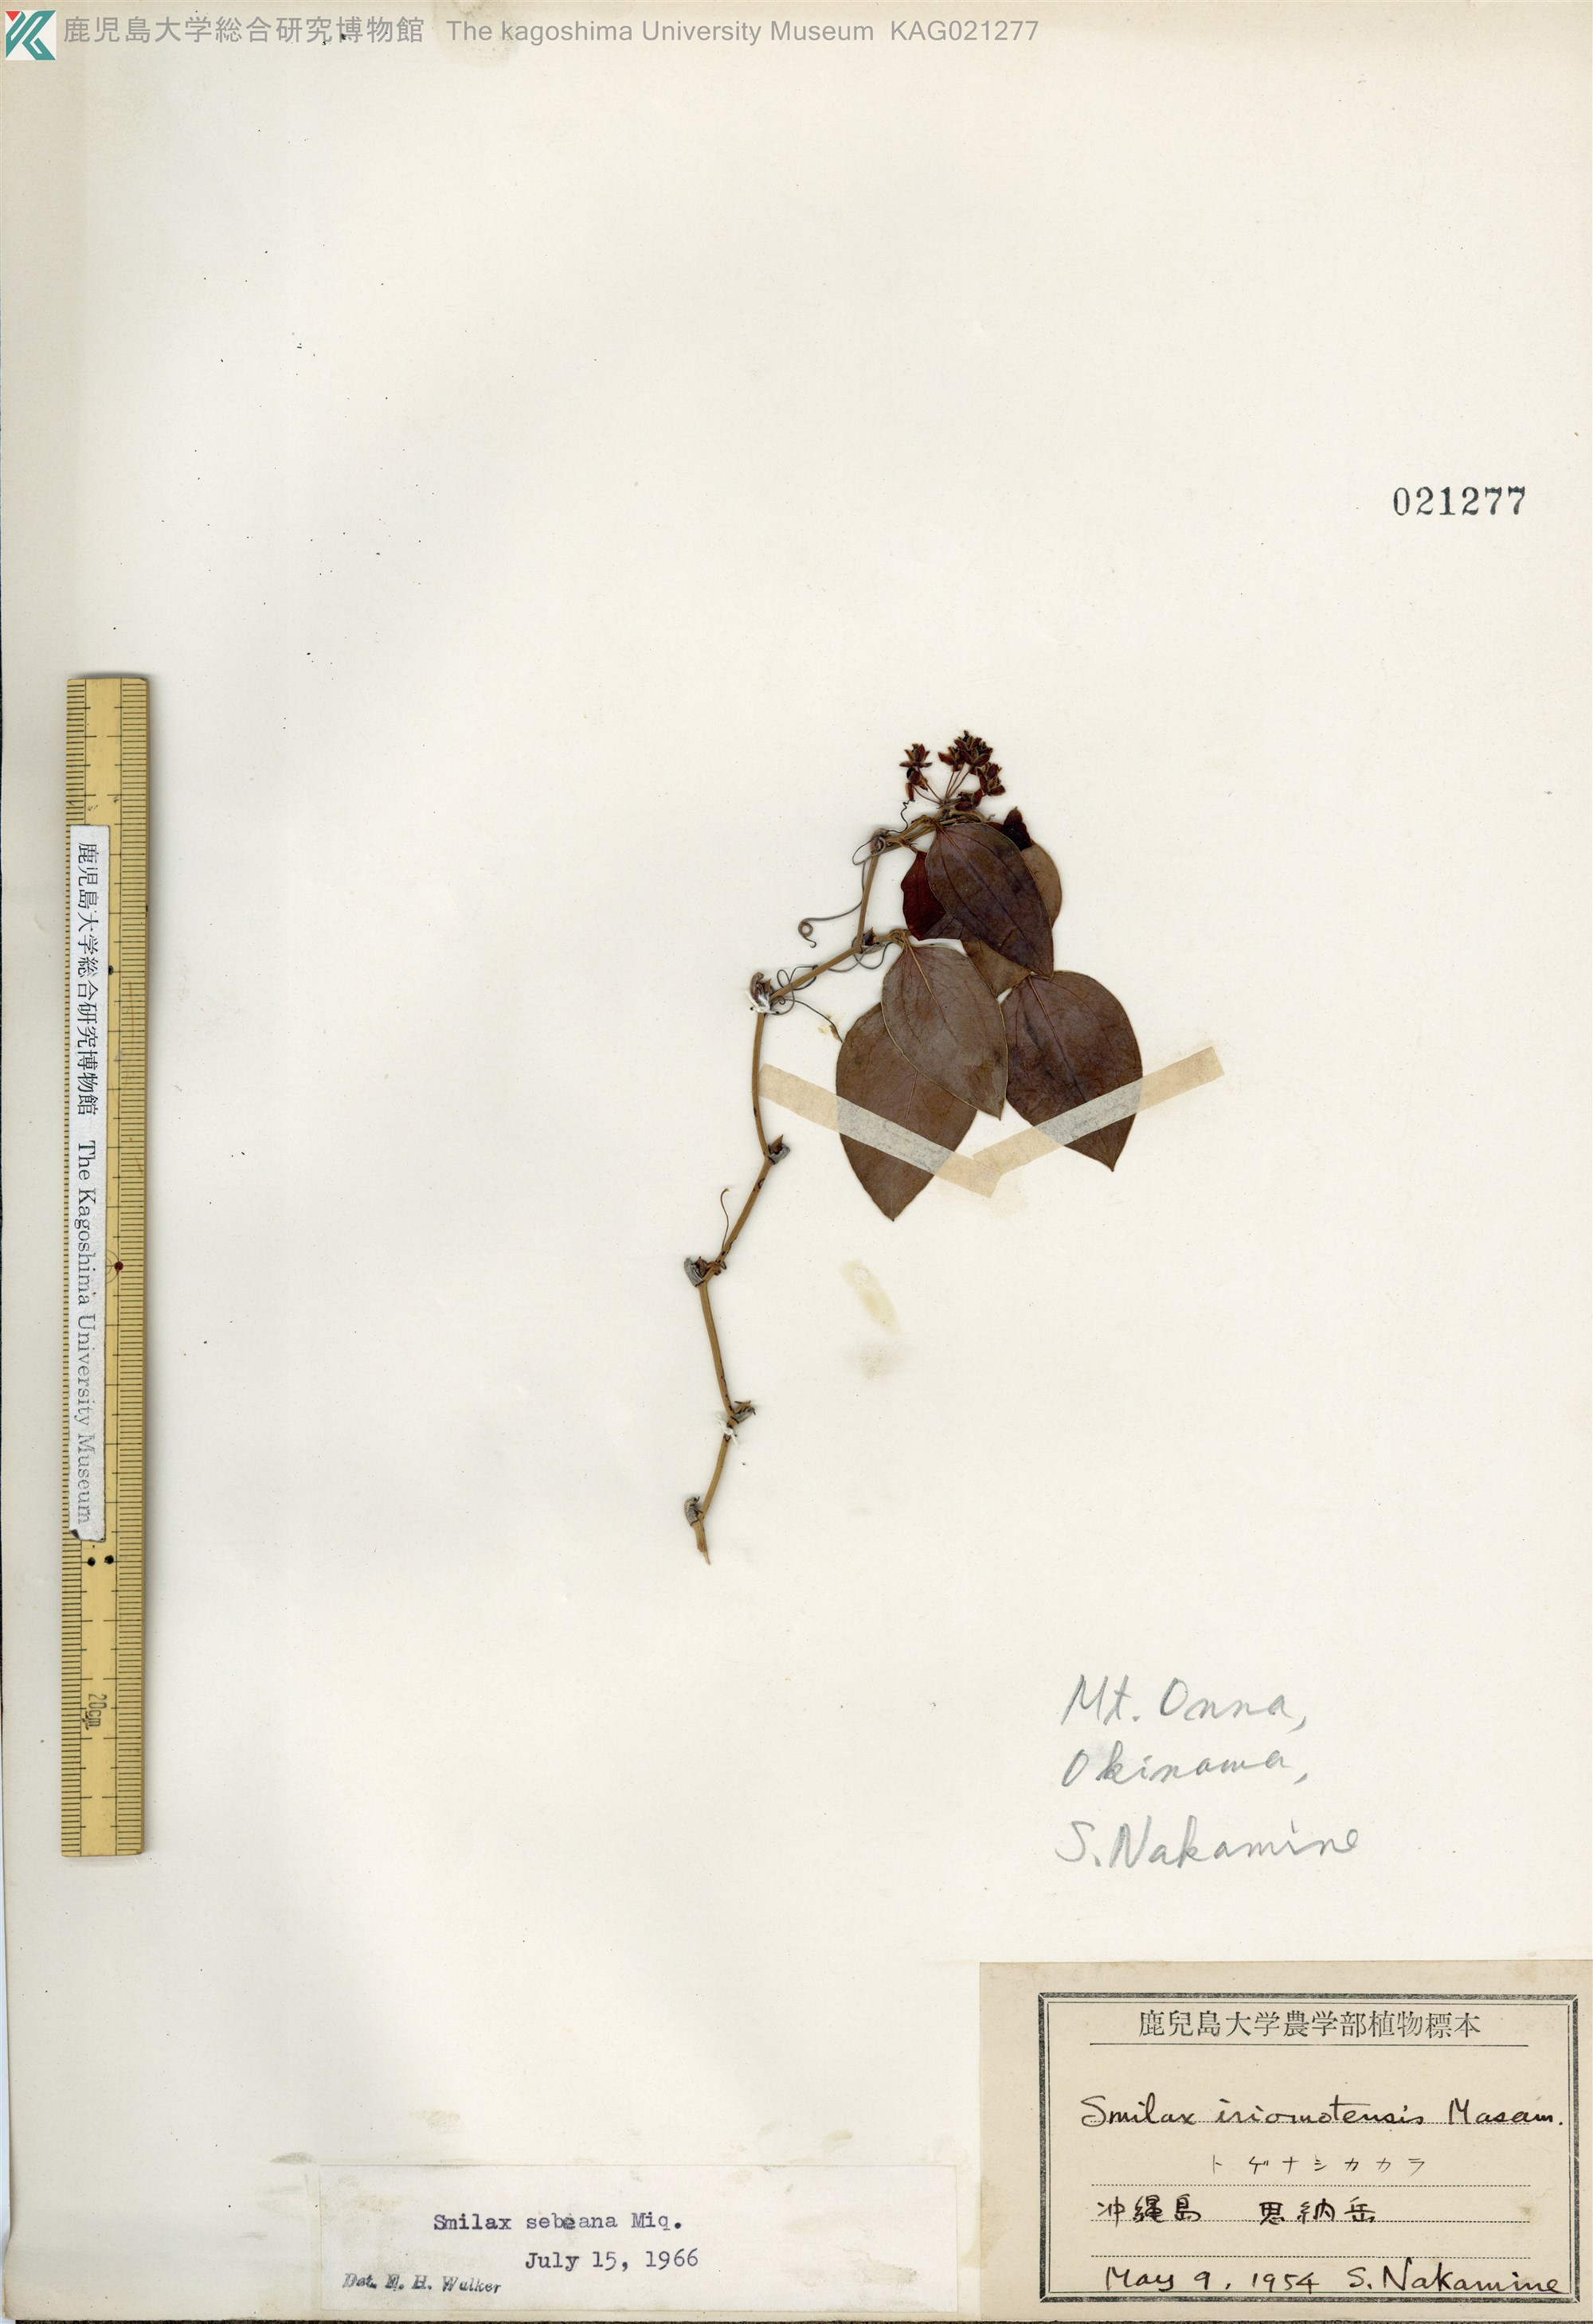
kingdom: Plantae
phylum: Tracheophyta
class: Liliopsida
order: Liliales
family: Smilacaceae
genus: Smilax
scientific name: Smilax sebeana
